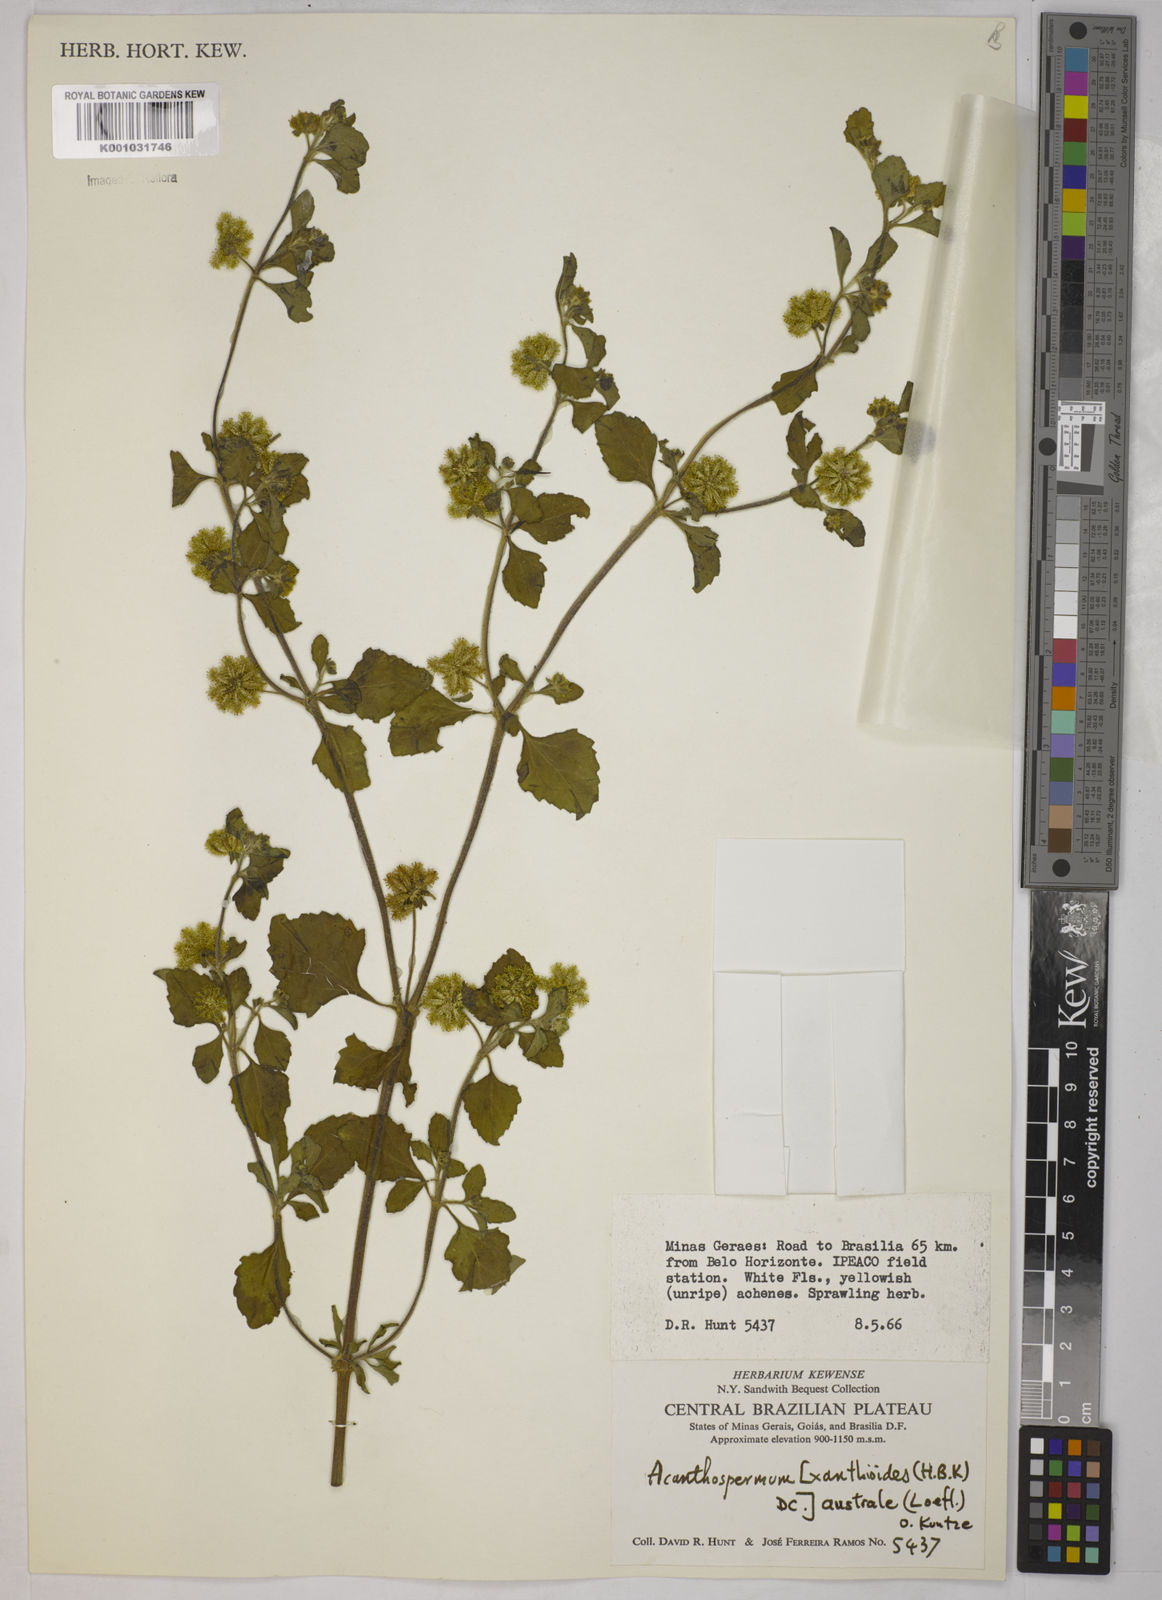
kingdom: Plantae
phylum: Tracheophyta
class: Magnoliopsida
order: Asterales
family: Asteraceae
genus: Acanthospermum
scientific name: Acanthospermum australe
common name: Paraguayan starbur
